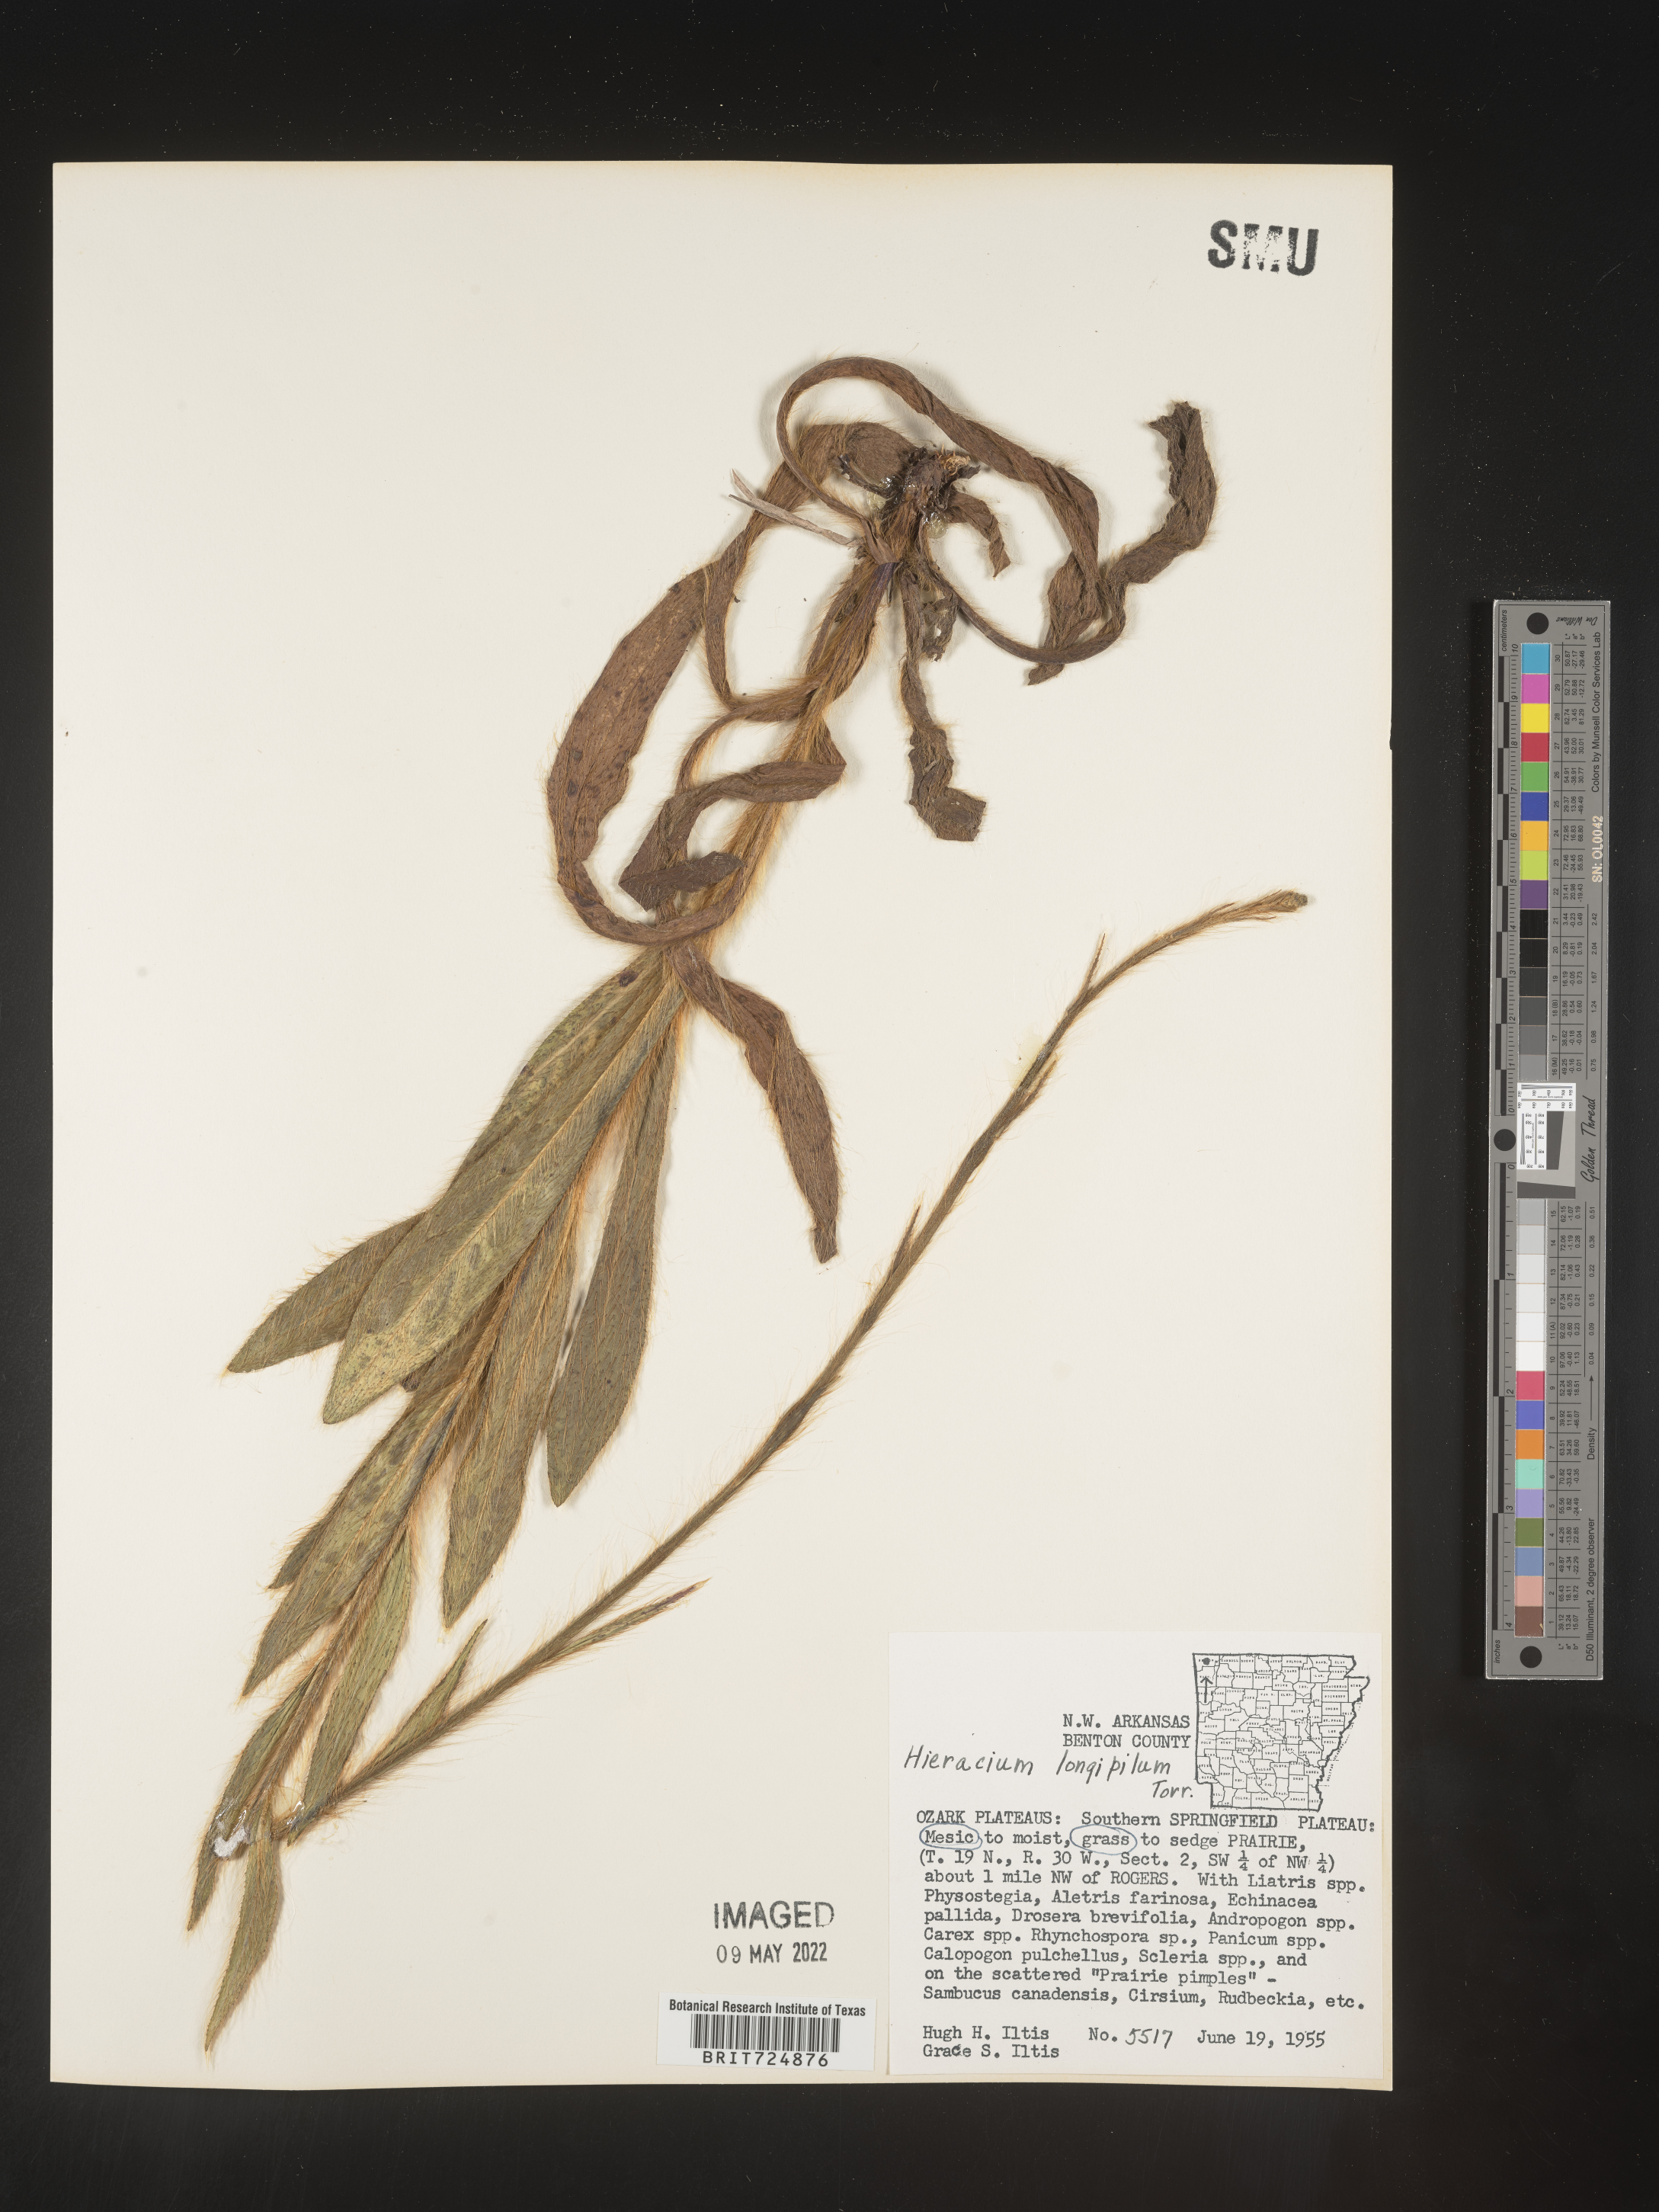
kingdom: Plantae
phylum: Tracheophyta
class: Magnoliopsida
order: Asterales
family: Asteraceae
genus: Hieracium
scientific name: Hieracium longipilum
